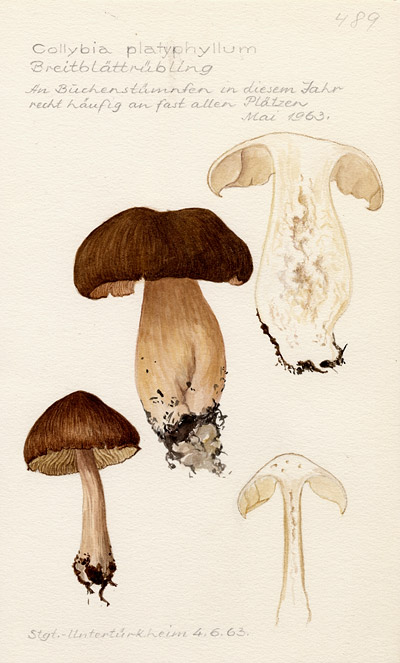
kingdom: Fungi
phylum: Basidiomycota
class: Agaricomycetes
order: Agaricales
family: Tricholomataceae
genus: Megacollybia
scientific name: Megacollybia platyphylla
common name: Whitelaced shank
